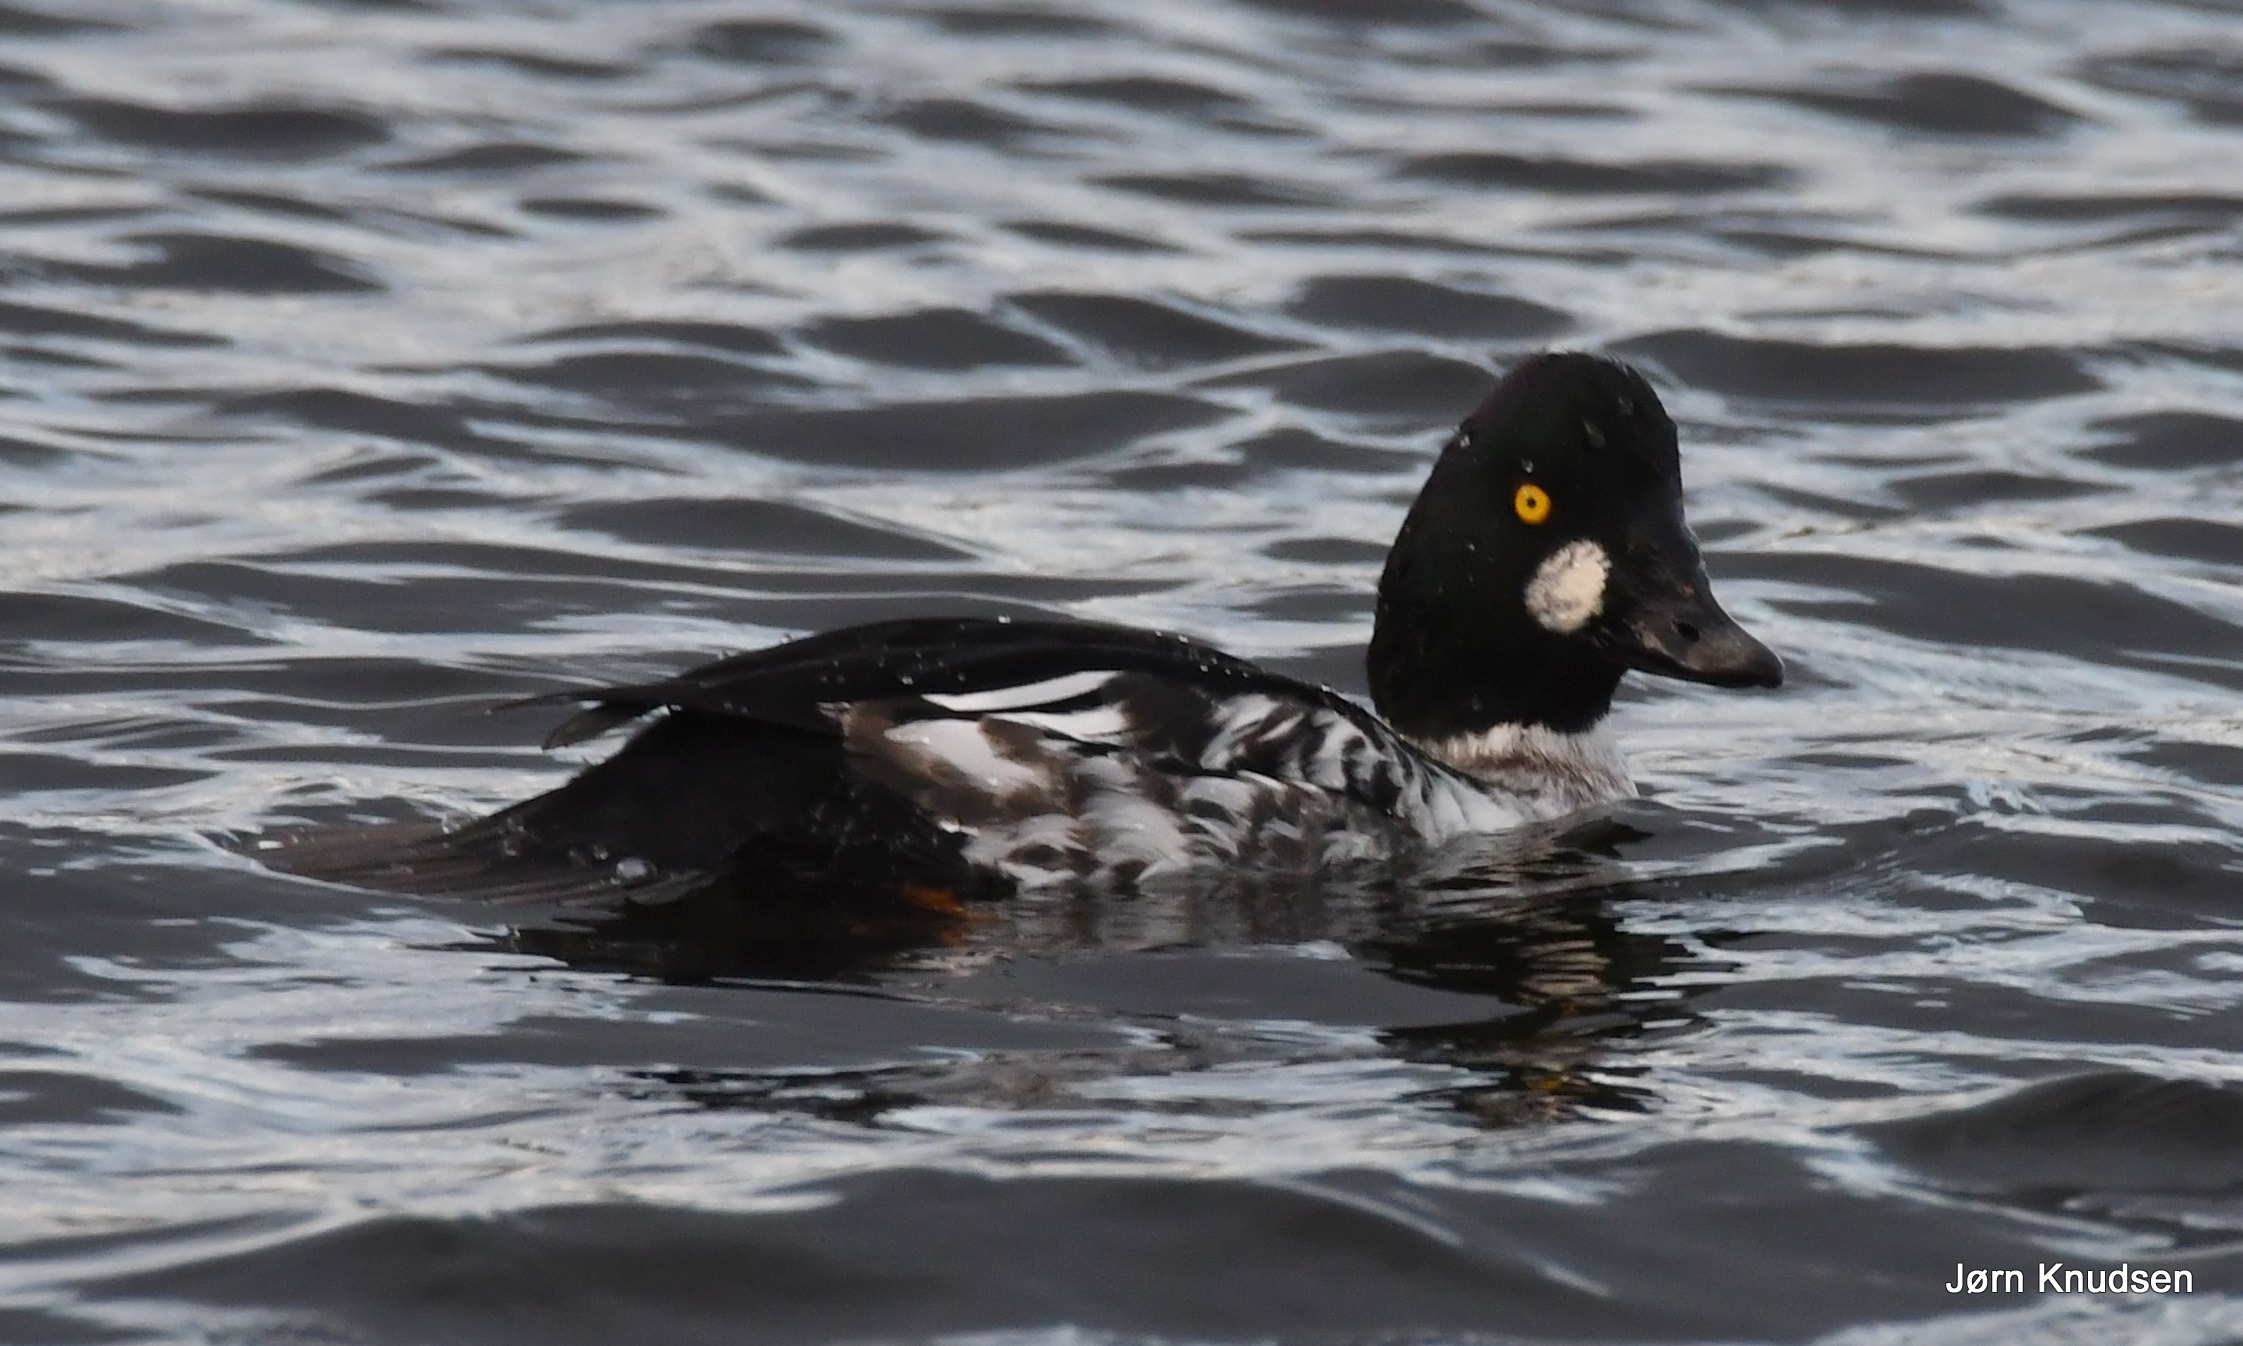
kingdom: Animalia
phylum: Chordata
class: Aves
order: Anseriformes
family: Anatidae
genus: Bucephala
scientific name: Bucephala clangula
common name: Hvinand
